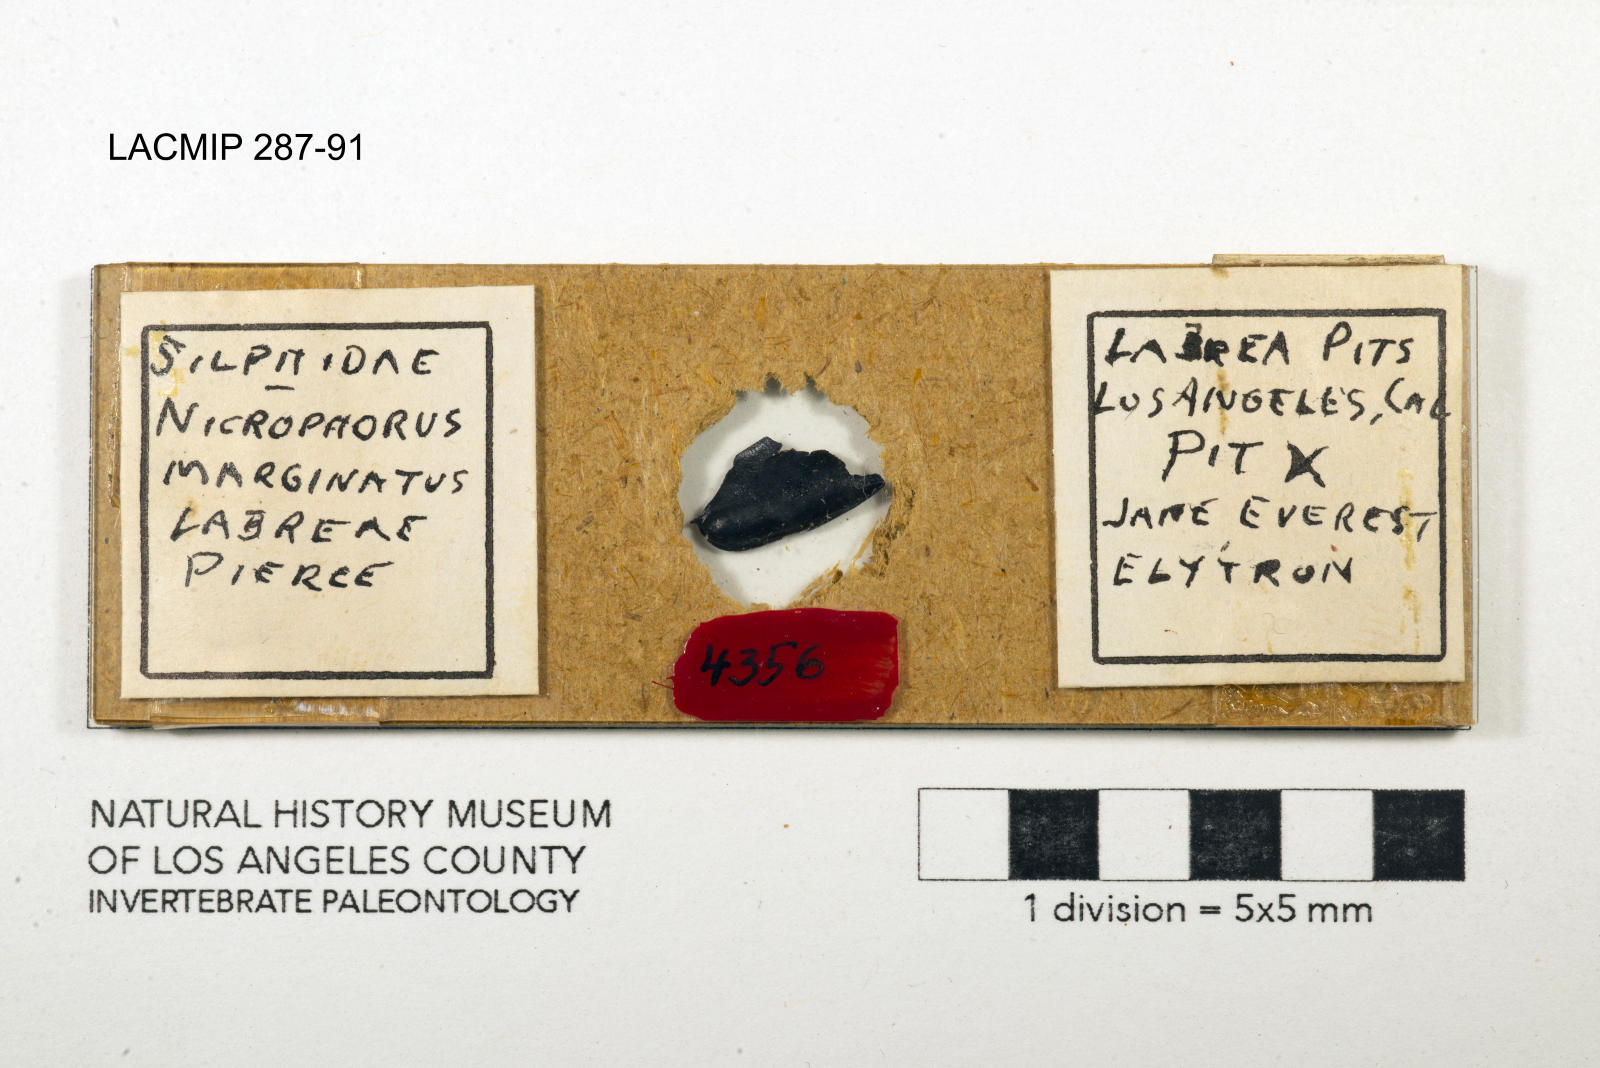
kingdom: Animalia
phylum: Arthropoda
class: Insecta
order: Coleoptera
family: Staphylinidae
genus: Nicrophorus
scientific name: Nicrophorus marginatus
